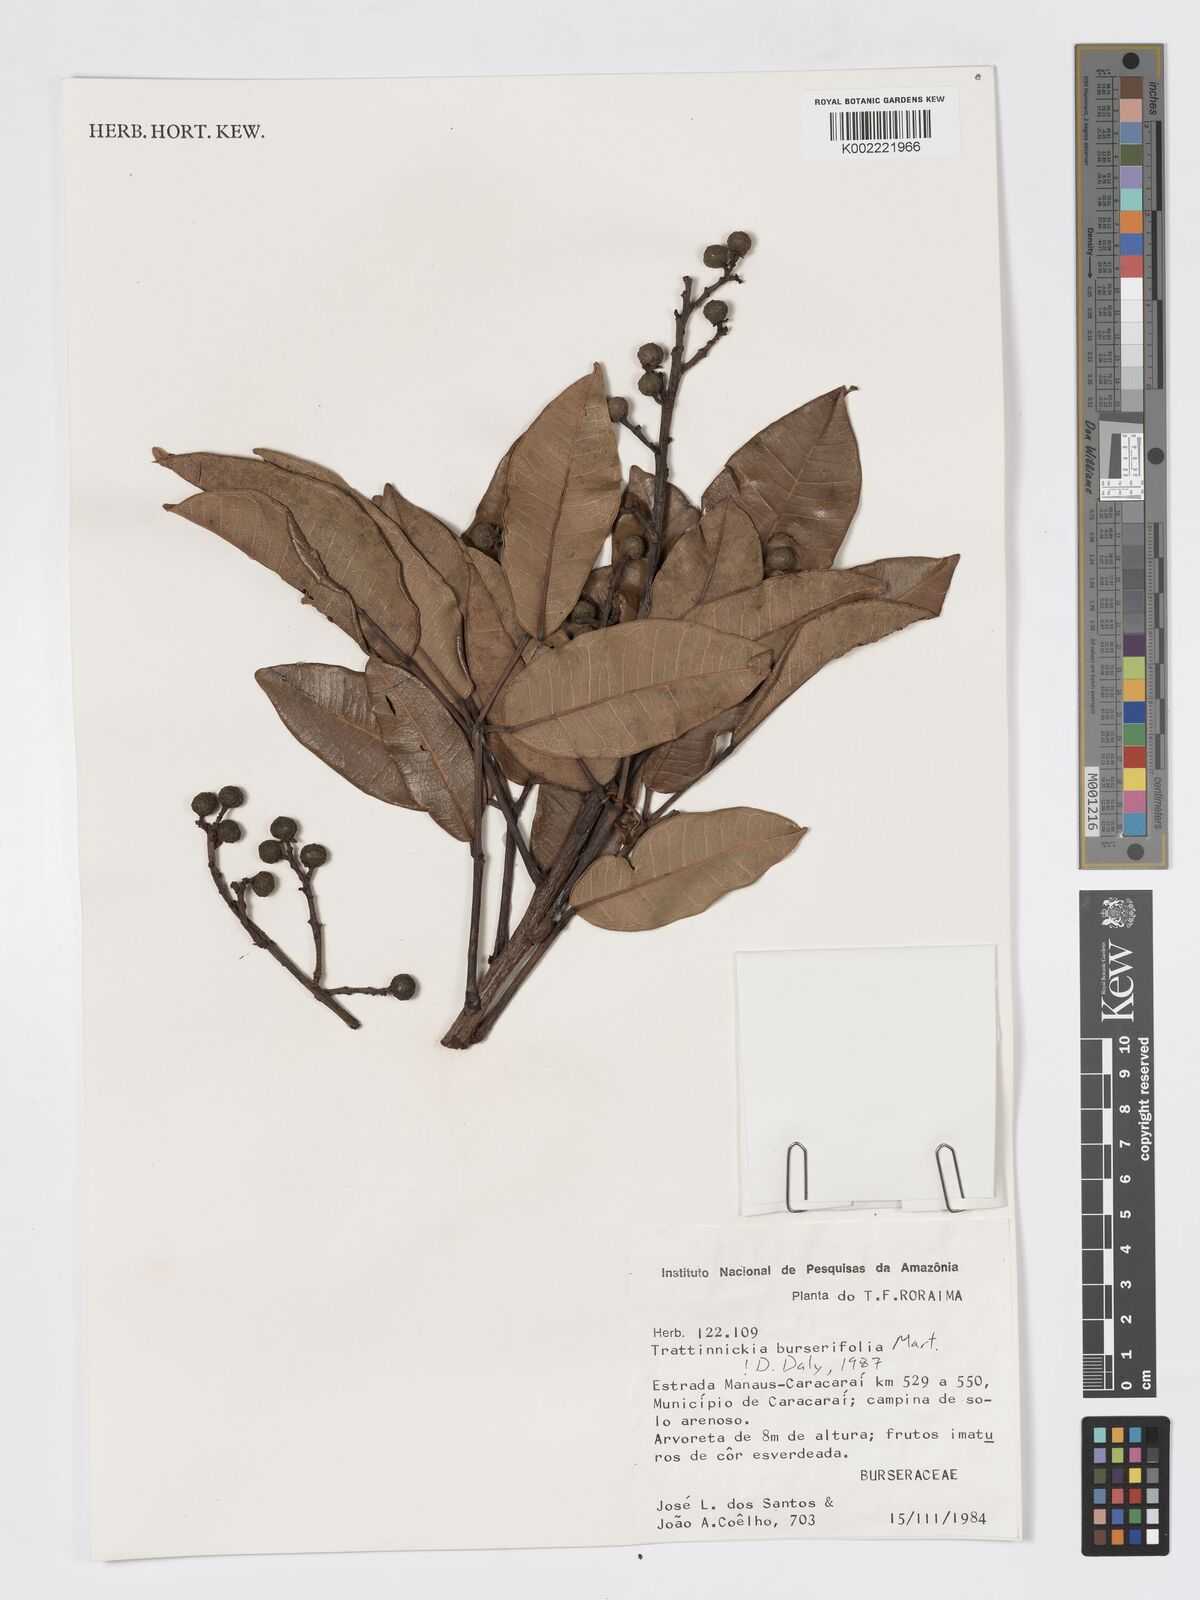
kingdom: Plantae
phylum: Tracheophyta
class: Magnoliopsida
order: Sapindales
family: Burseraceae
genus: Trattinnickia
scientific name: Trattinnickia burserifolia
